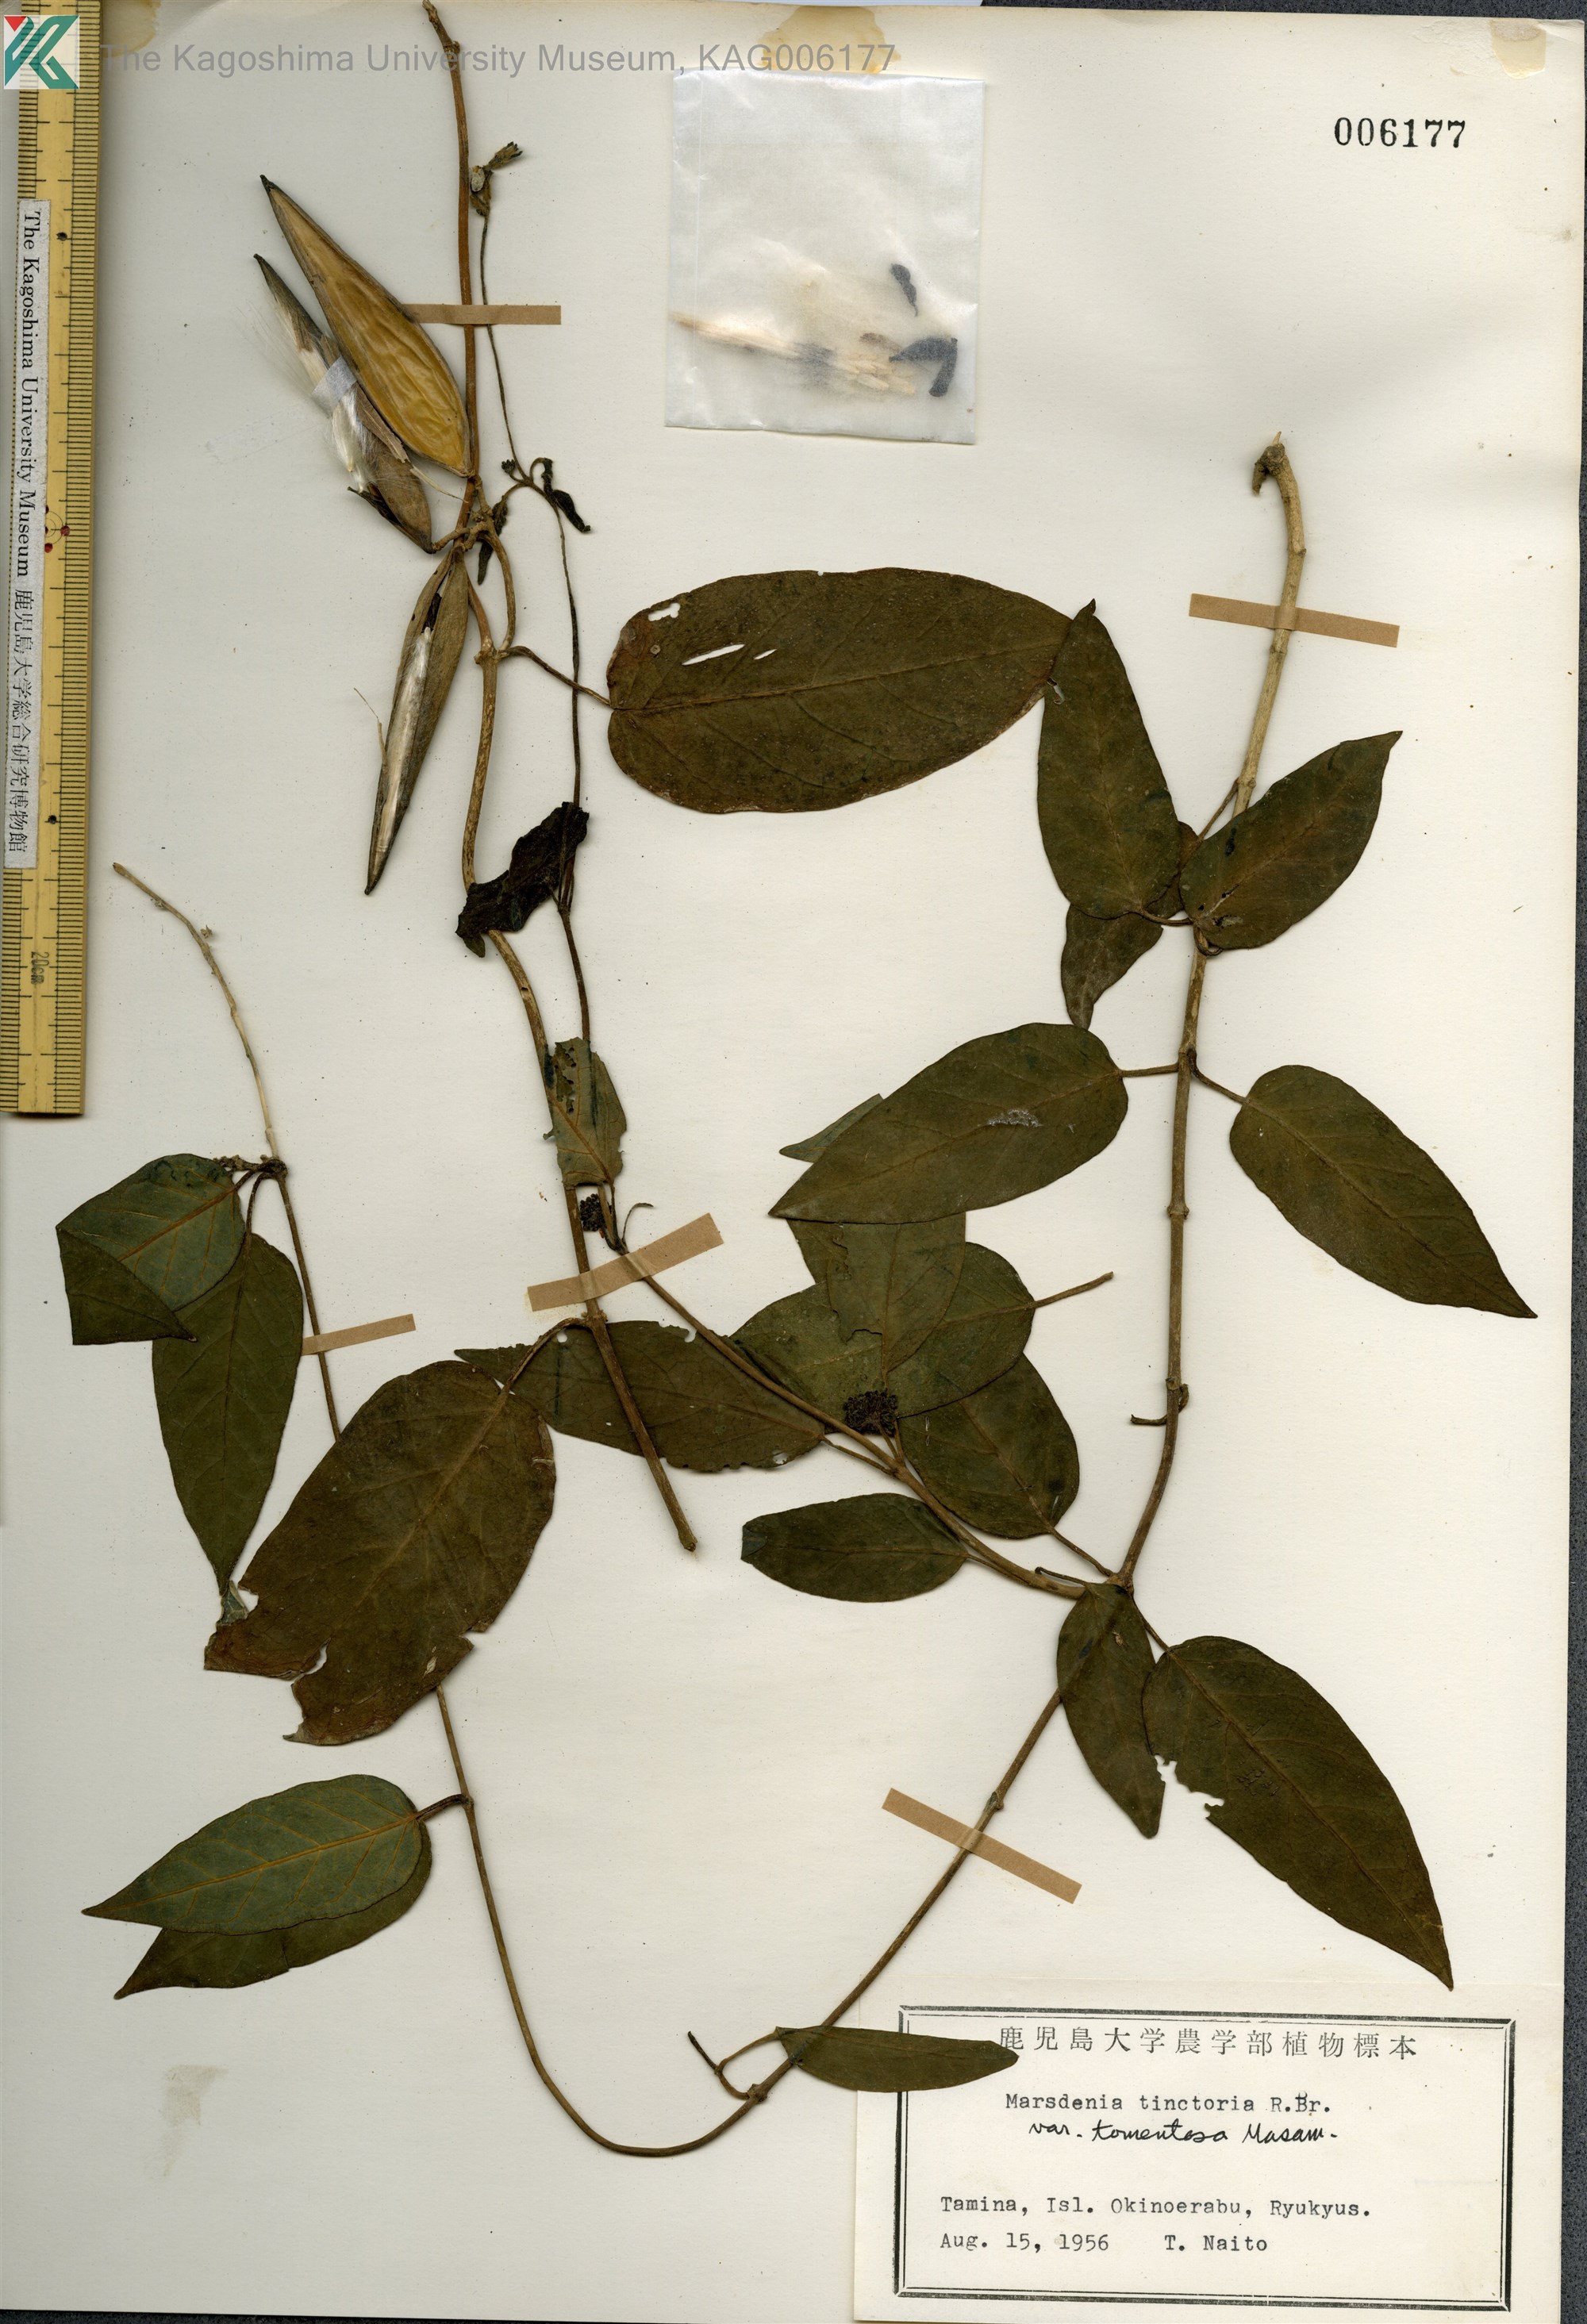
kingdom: Plantae
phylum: Tracheophyta
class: Magnoliopsida
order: Gentianales
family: Apocynaceae
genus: Marsdenia
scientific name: Marsdenia tinctoria
